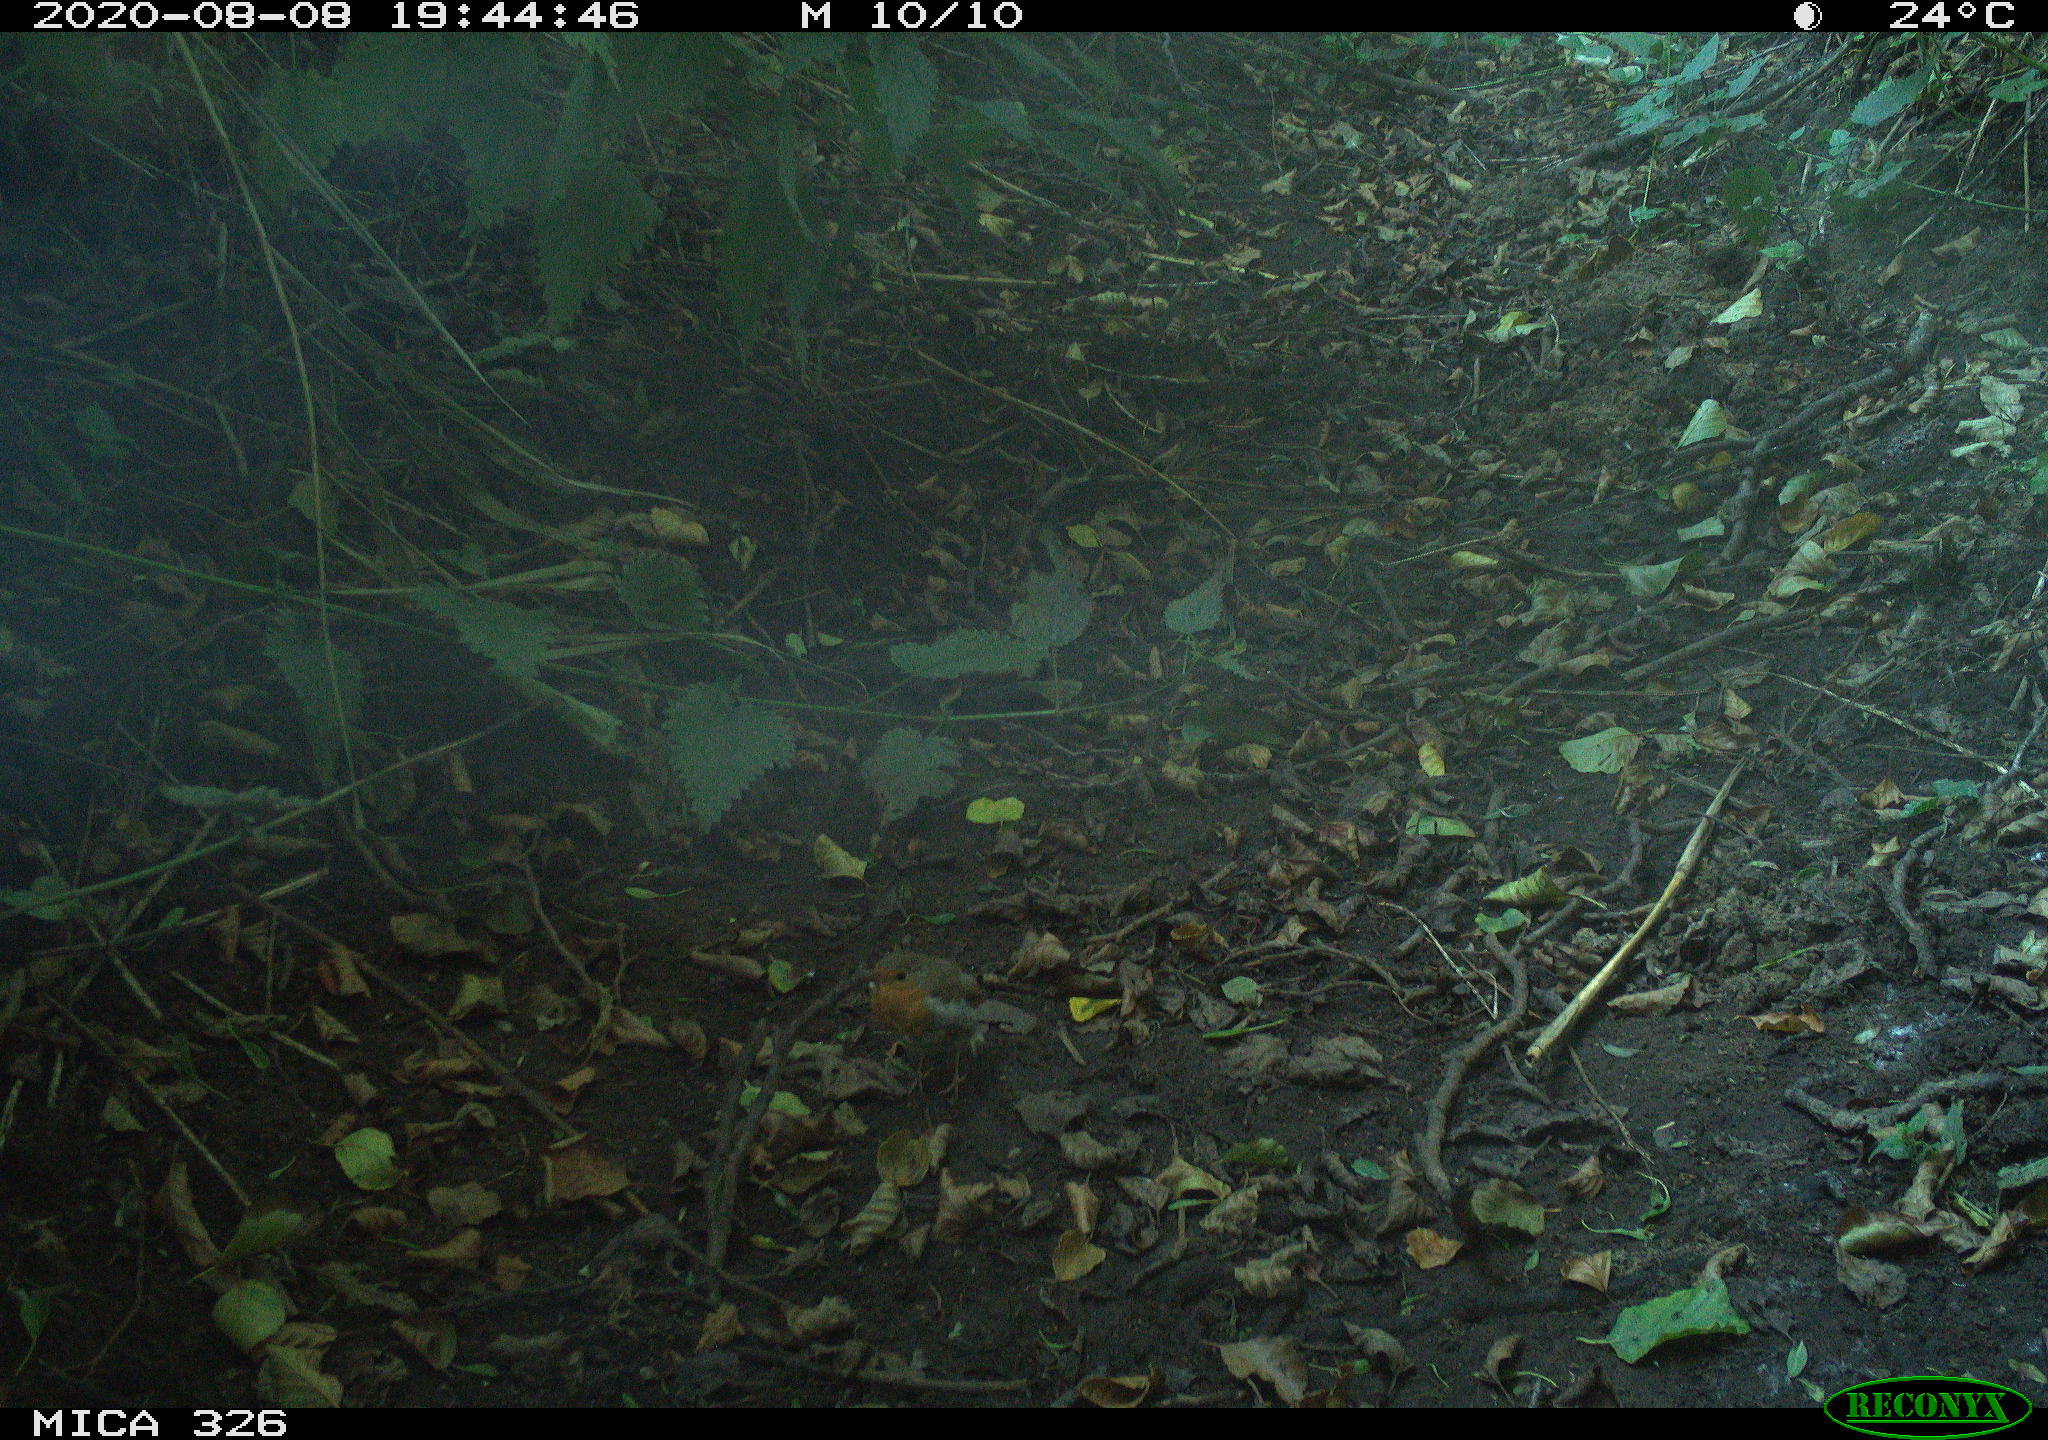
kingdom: Animalia
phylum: Chordata
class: Aves
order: Passeriformes
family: Muscicapidae
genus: Erithacus
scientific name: Erithacus rubecula
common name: European robin
